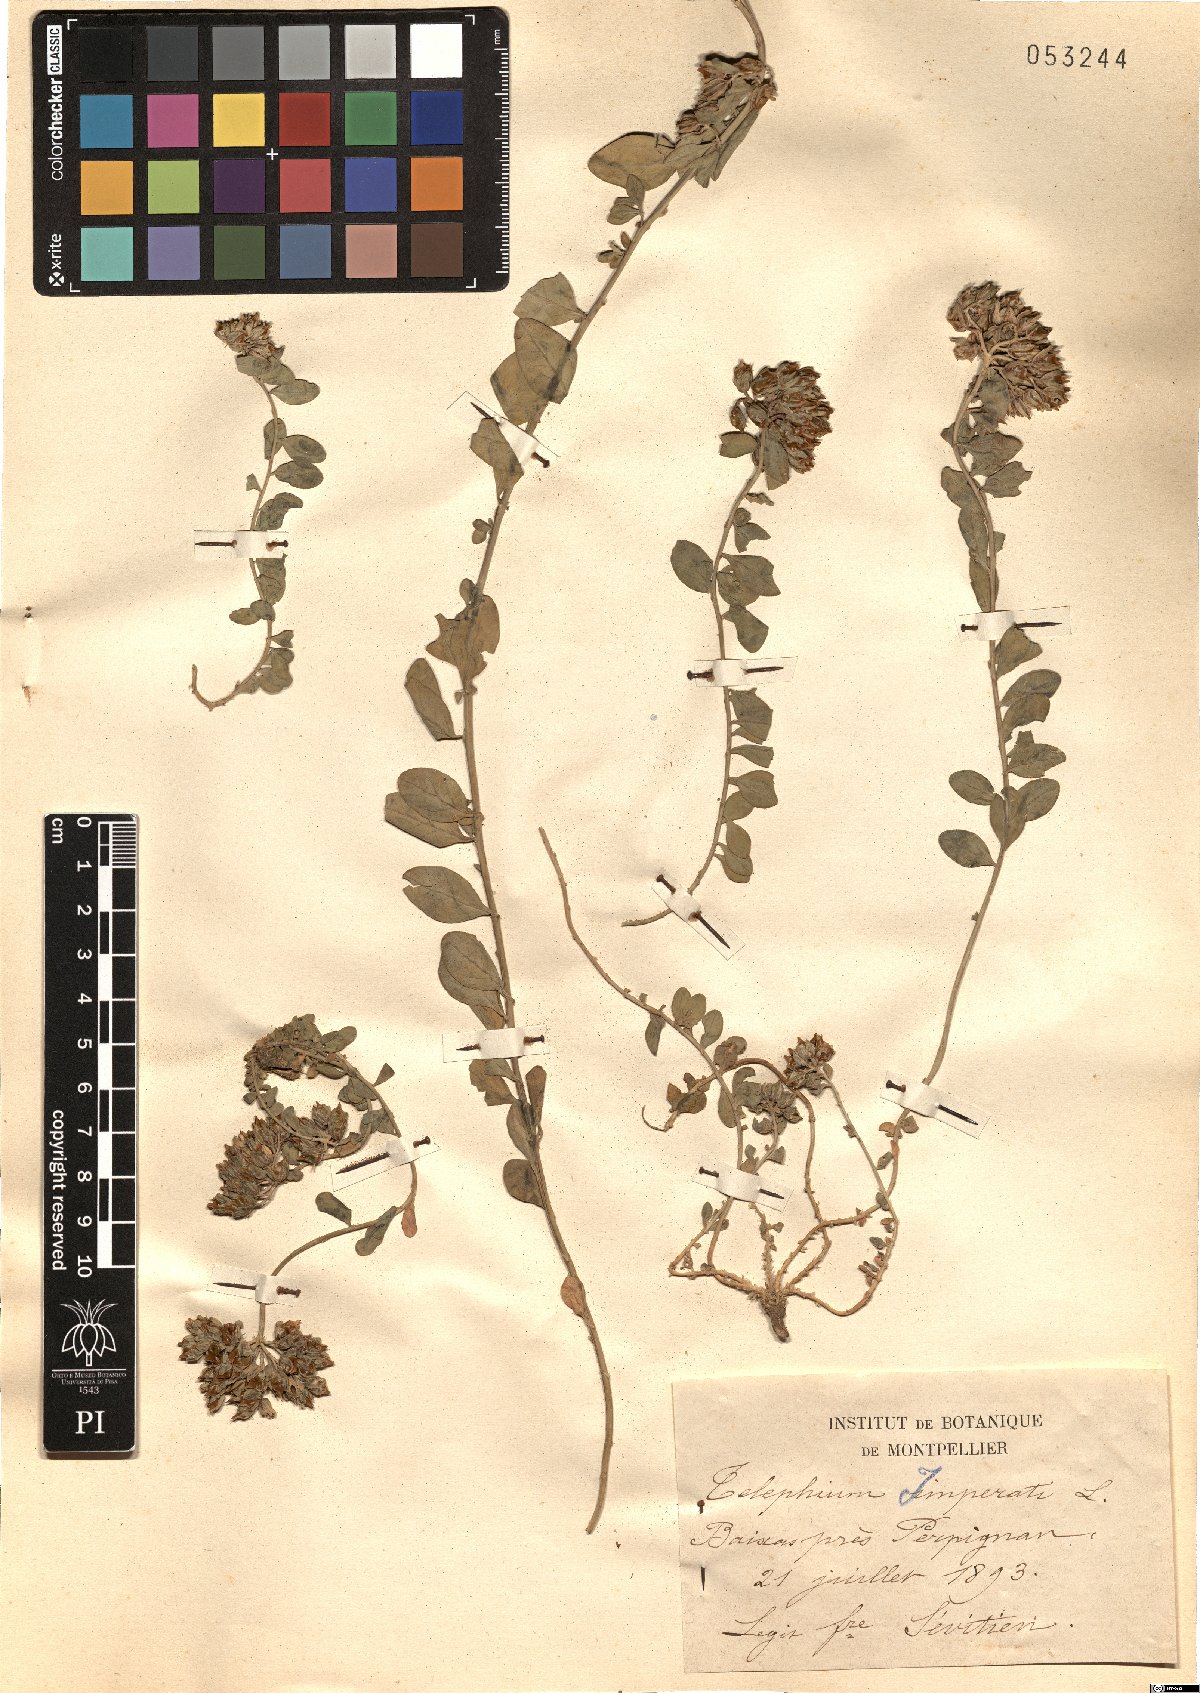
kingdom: Plantae
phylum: Tracheophyta
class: Magnoliopsida
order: Caryophyllales
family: Caryophyllaceae
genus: Telephium
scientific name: Telephium imperati
